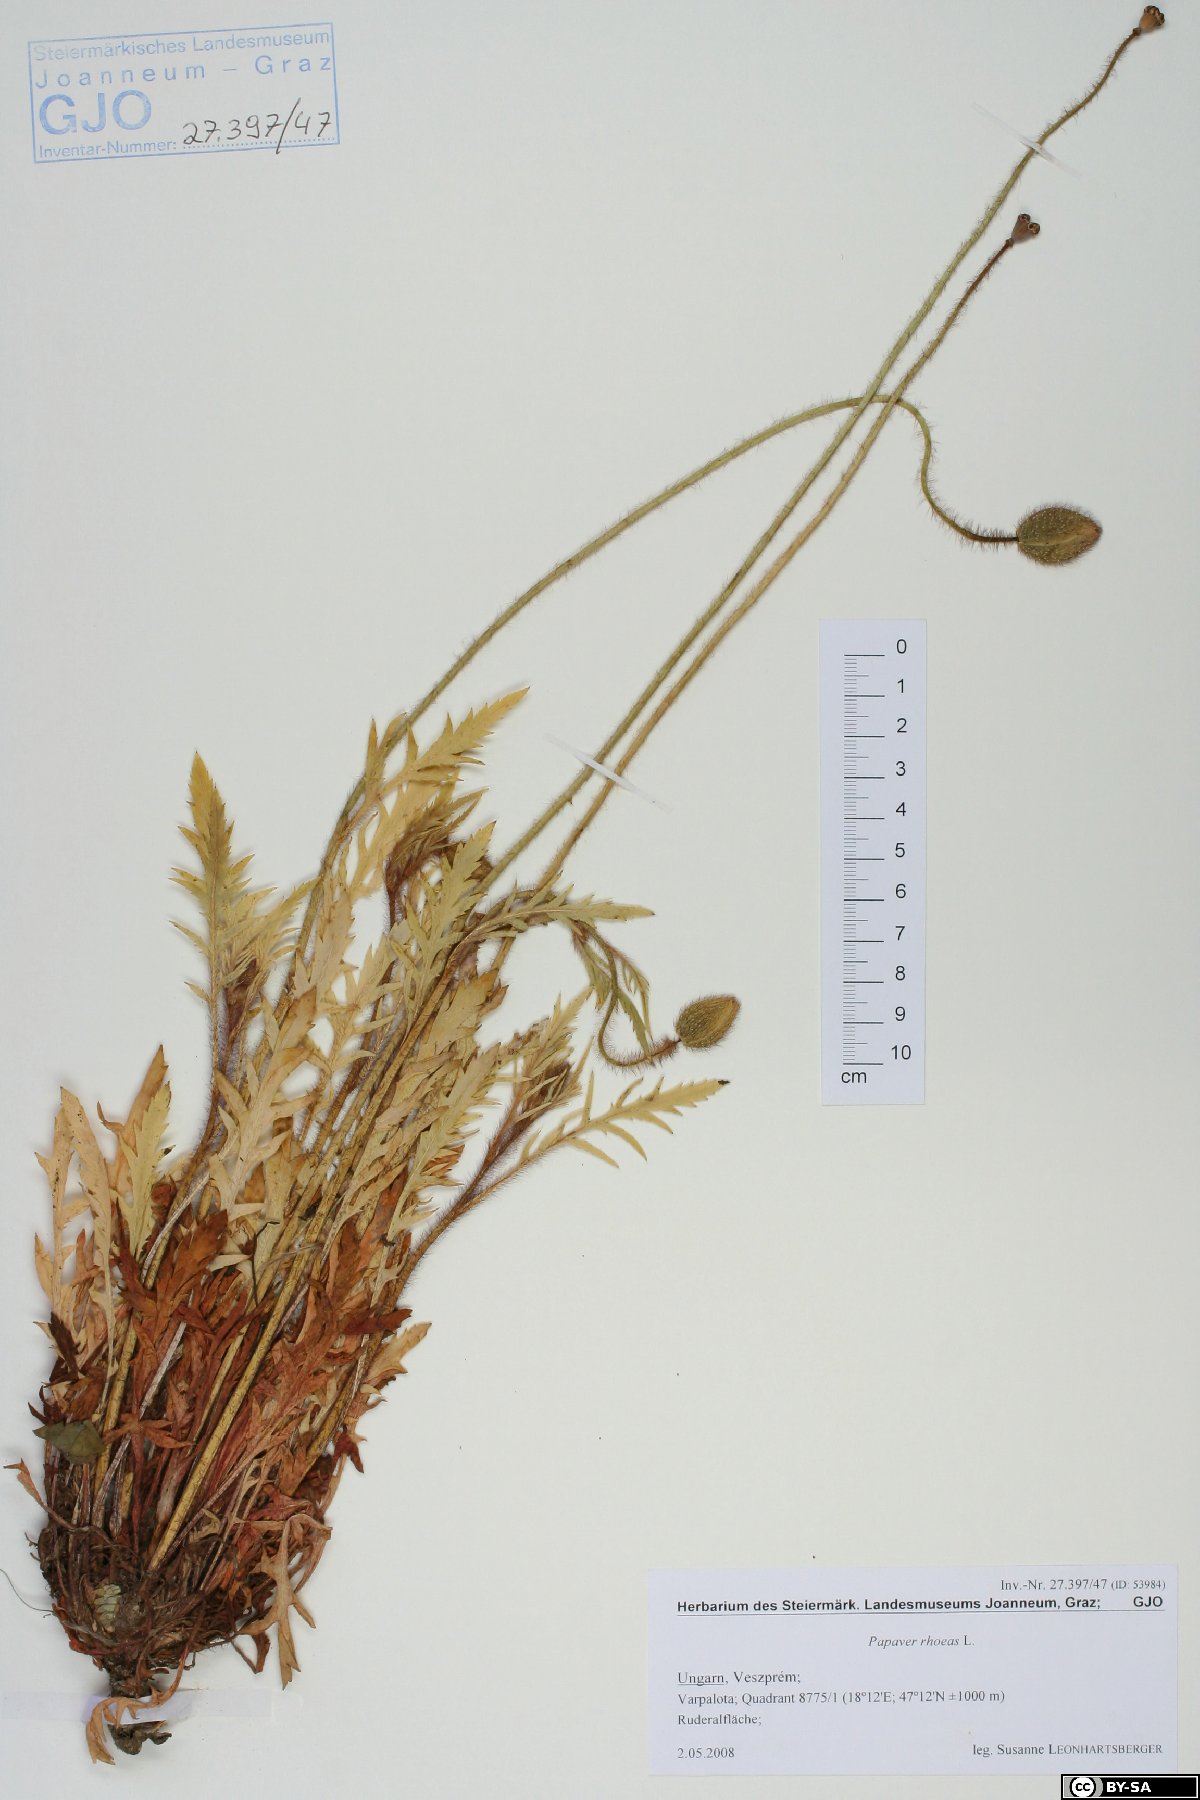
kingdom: Plantae
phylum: Tracheophyta
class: Magnoliopsida
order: Ranunculales
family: Papaveraceae
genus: Papaver
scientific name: Papaver rhoeas
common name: Corn poppy
